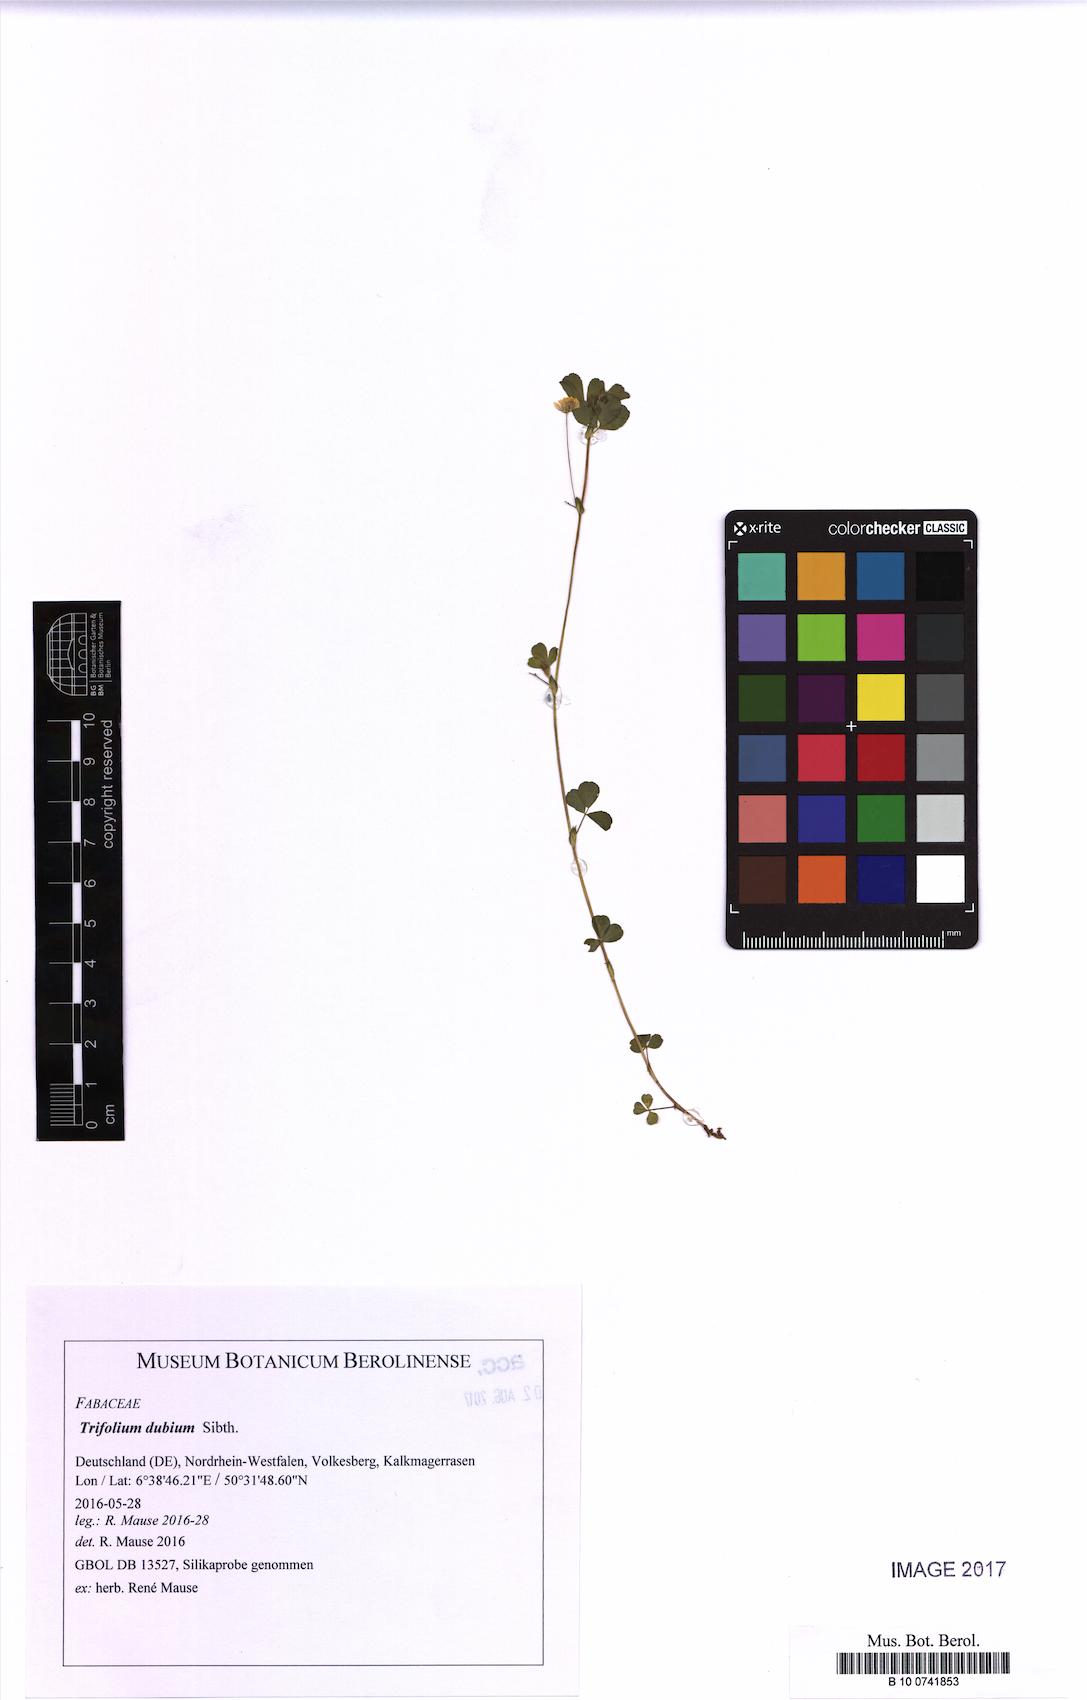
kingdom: Plantae
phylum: Tracheophyta
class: Magnoliopsida
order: Fabales
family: Fabaceae
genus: Trifolium
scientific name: Trifolium dubium
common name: Suckling clover
